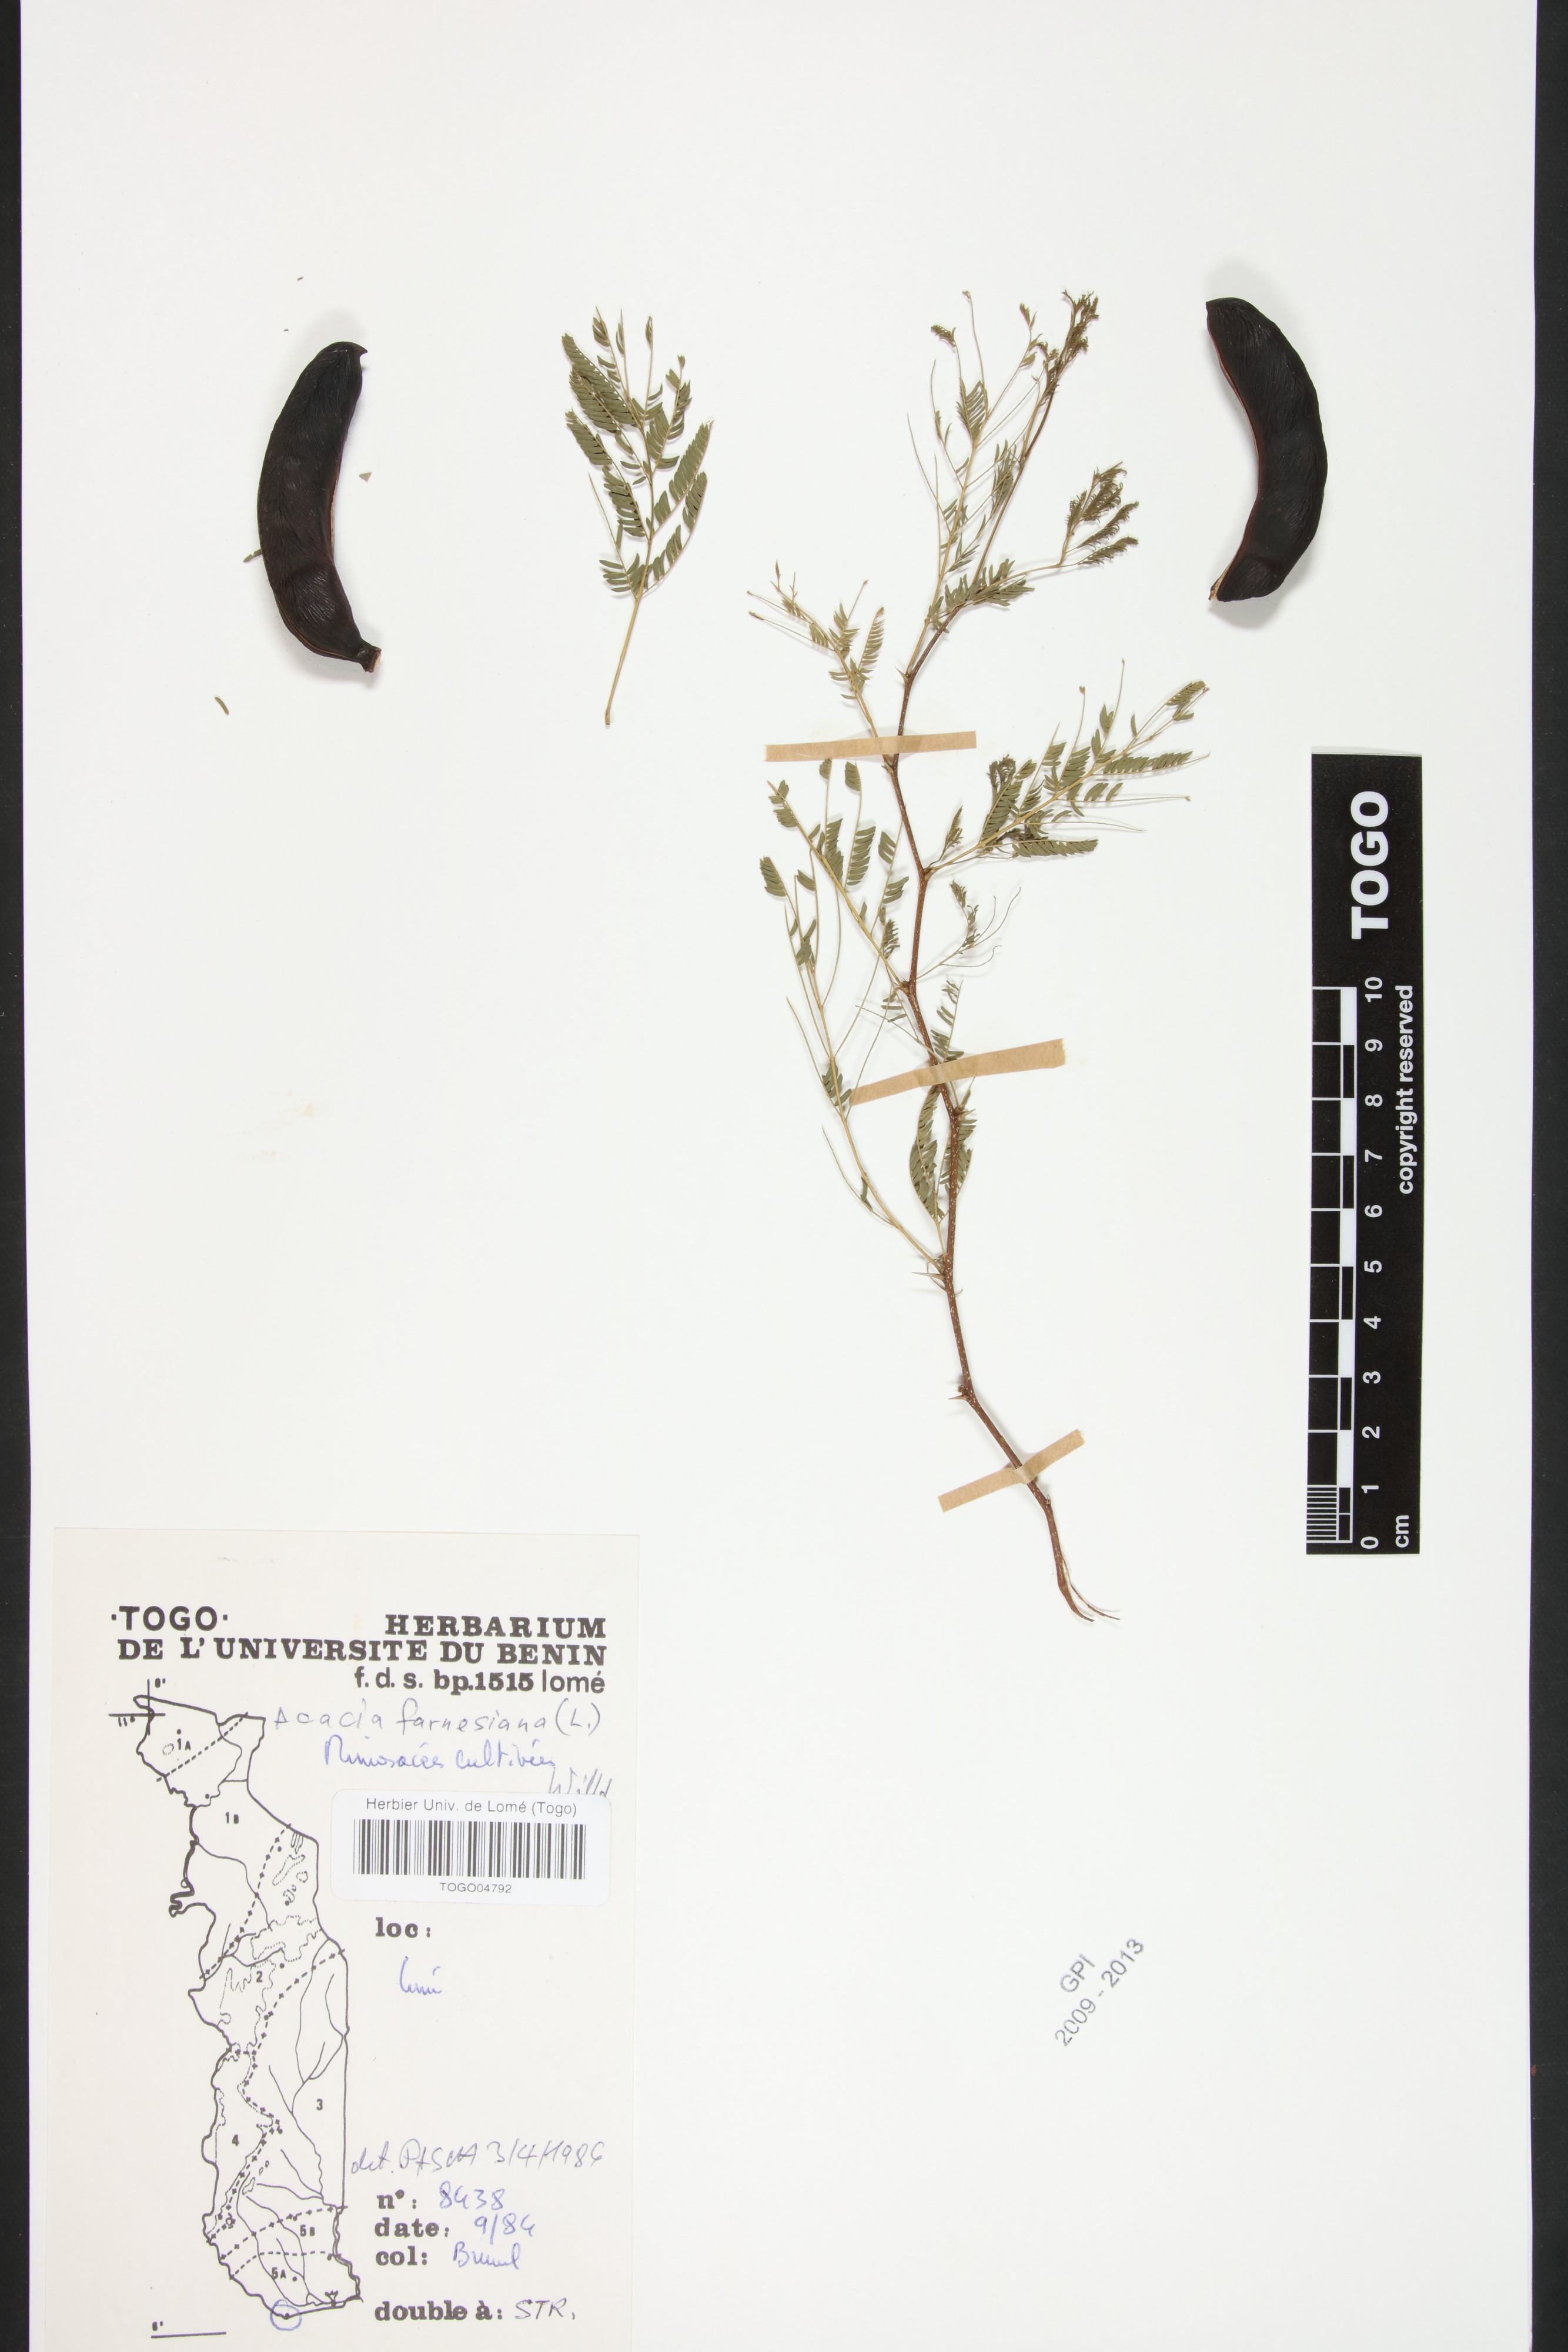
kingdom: Plantae
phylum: Tracheophyta
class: Magnoliopsida
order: Fabales
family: Fabaceae
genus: Vachellia
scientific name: Vachellia farnesiana
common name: Sweet acacia
